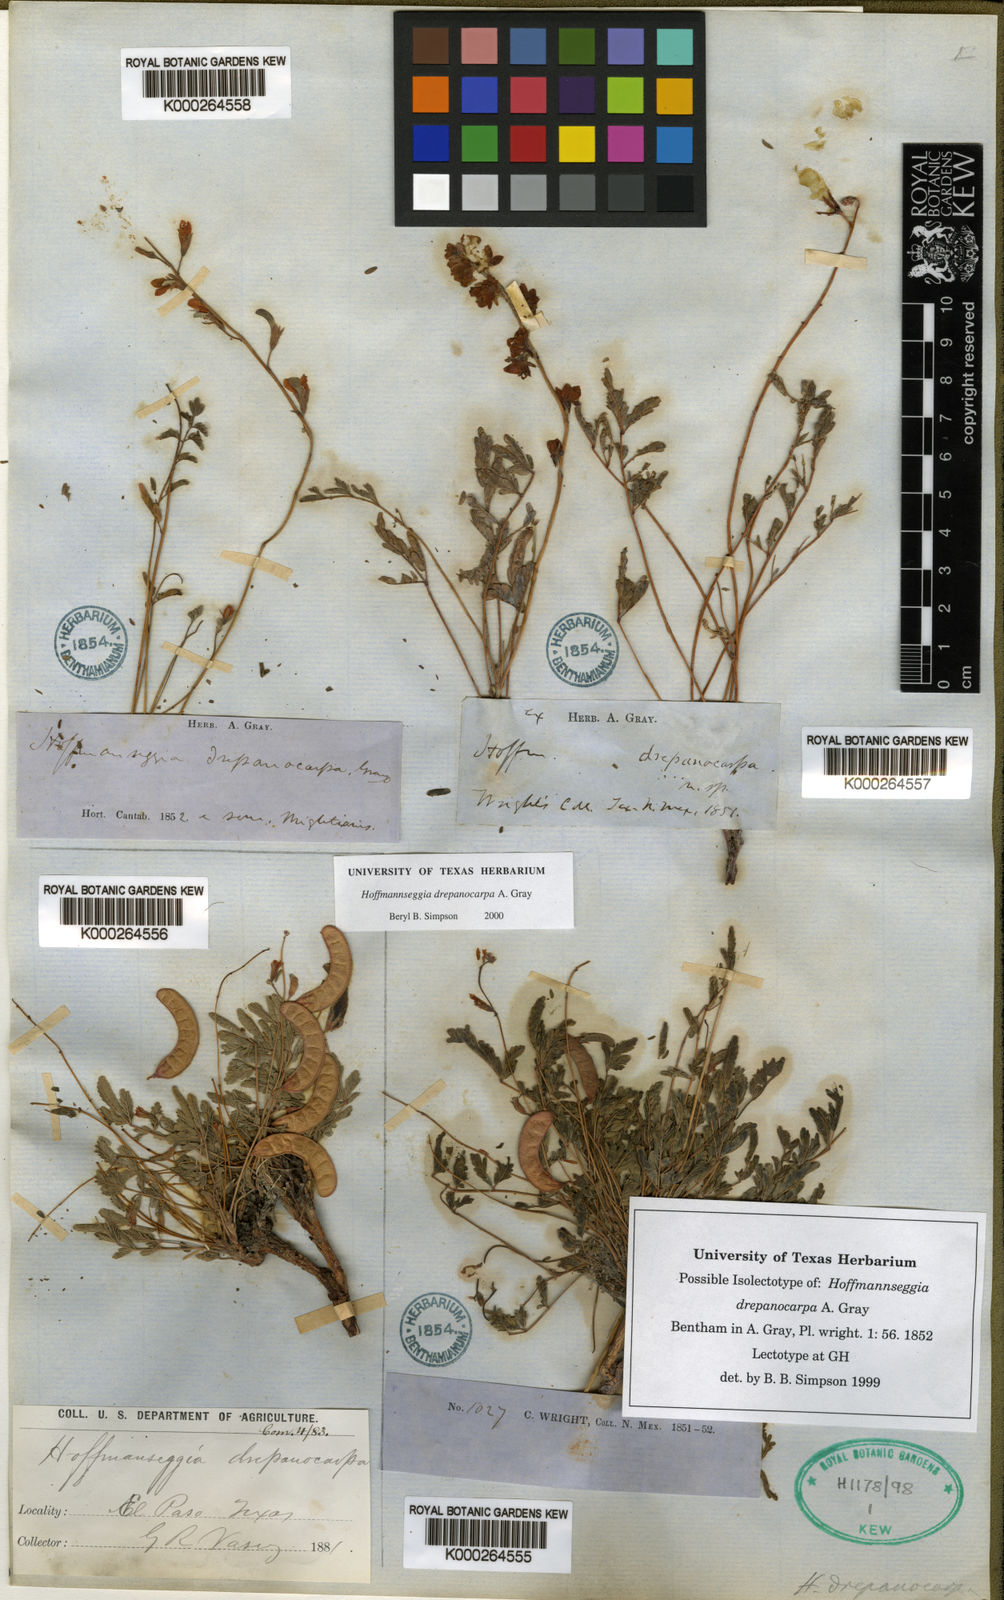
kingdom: Plantae
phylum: Tracheophyta
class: Magnoliopsida
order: Fabales
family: Fabaceae
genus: Hoffmannseggia
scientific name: Hoffmannseggia drepanocarpa
